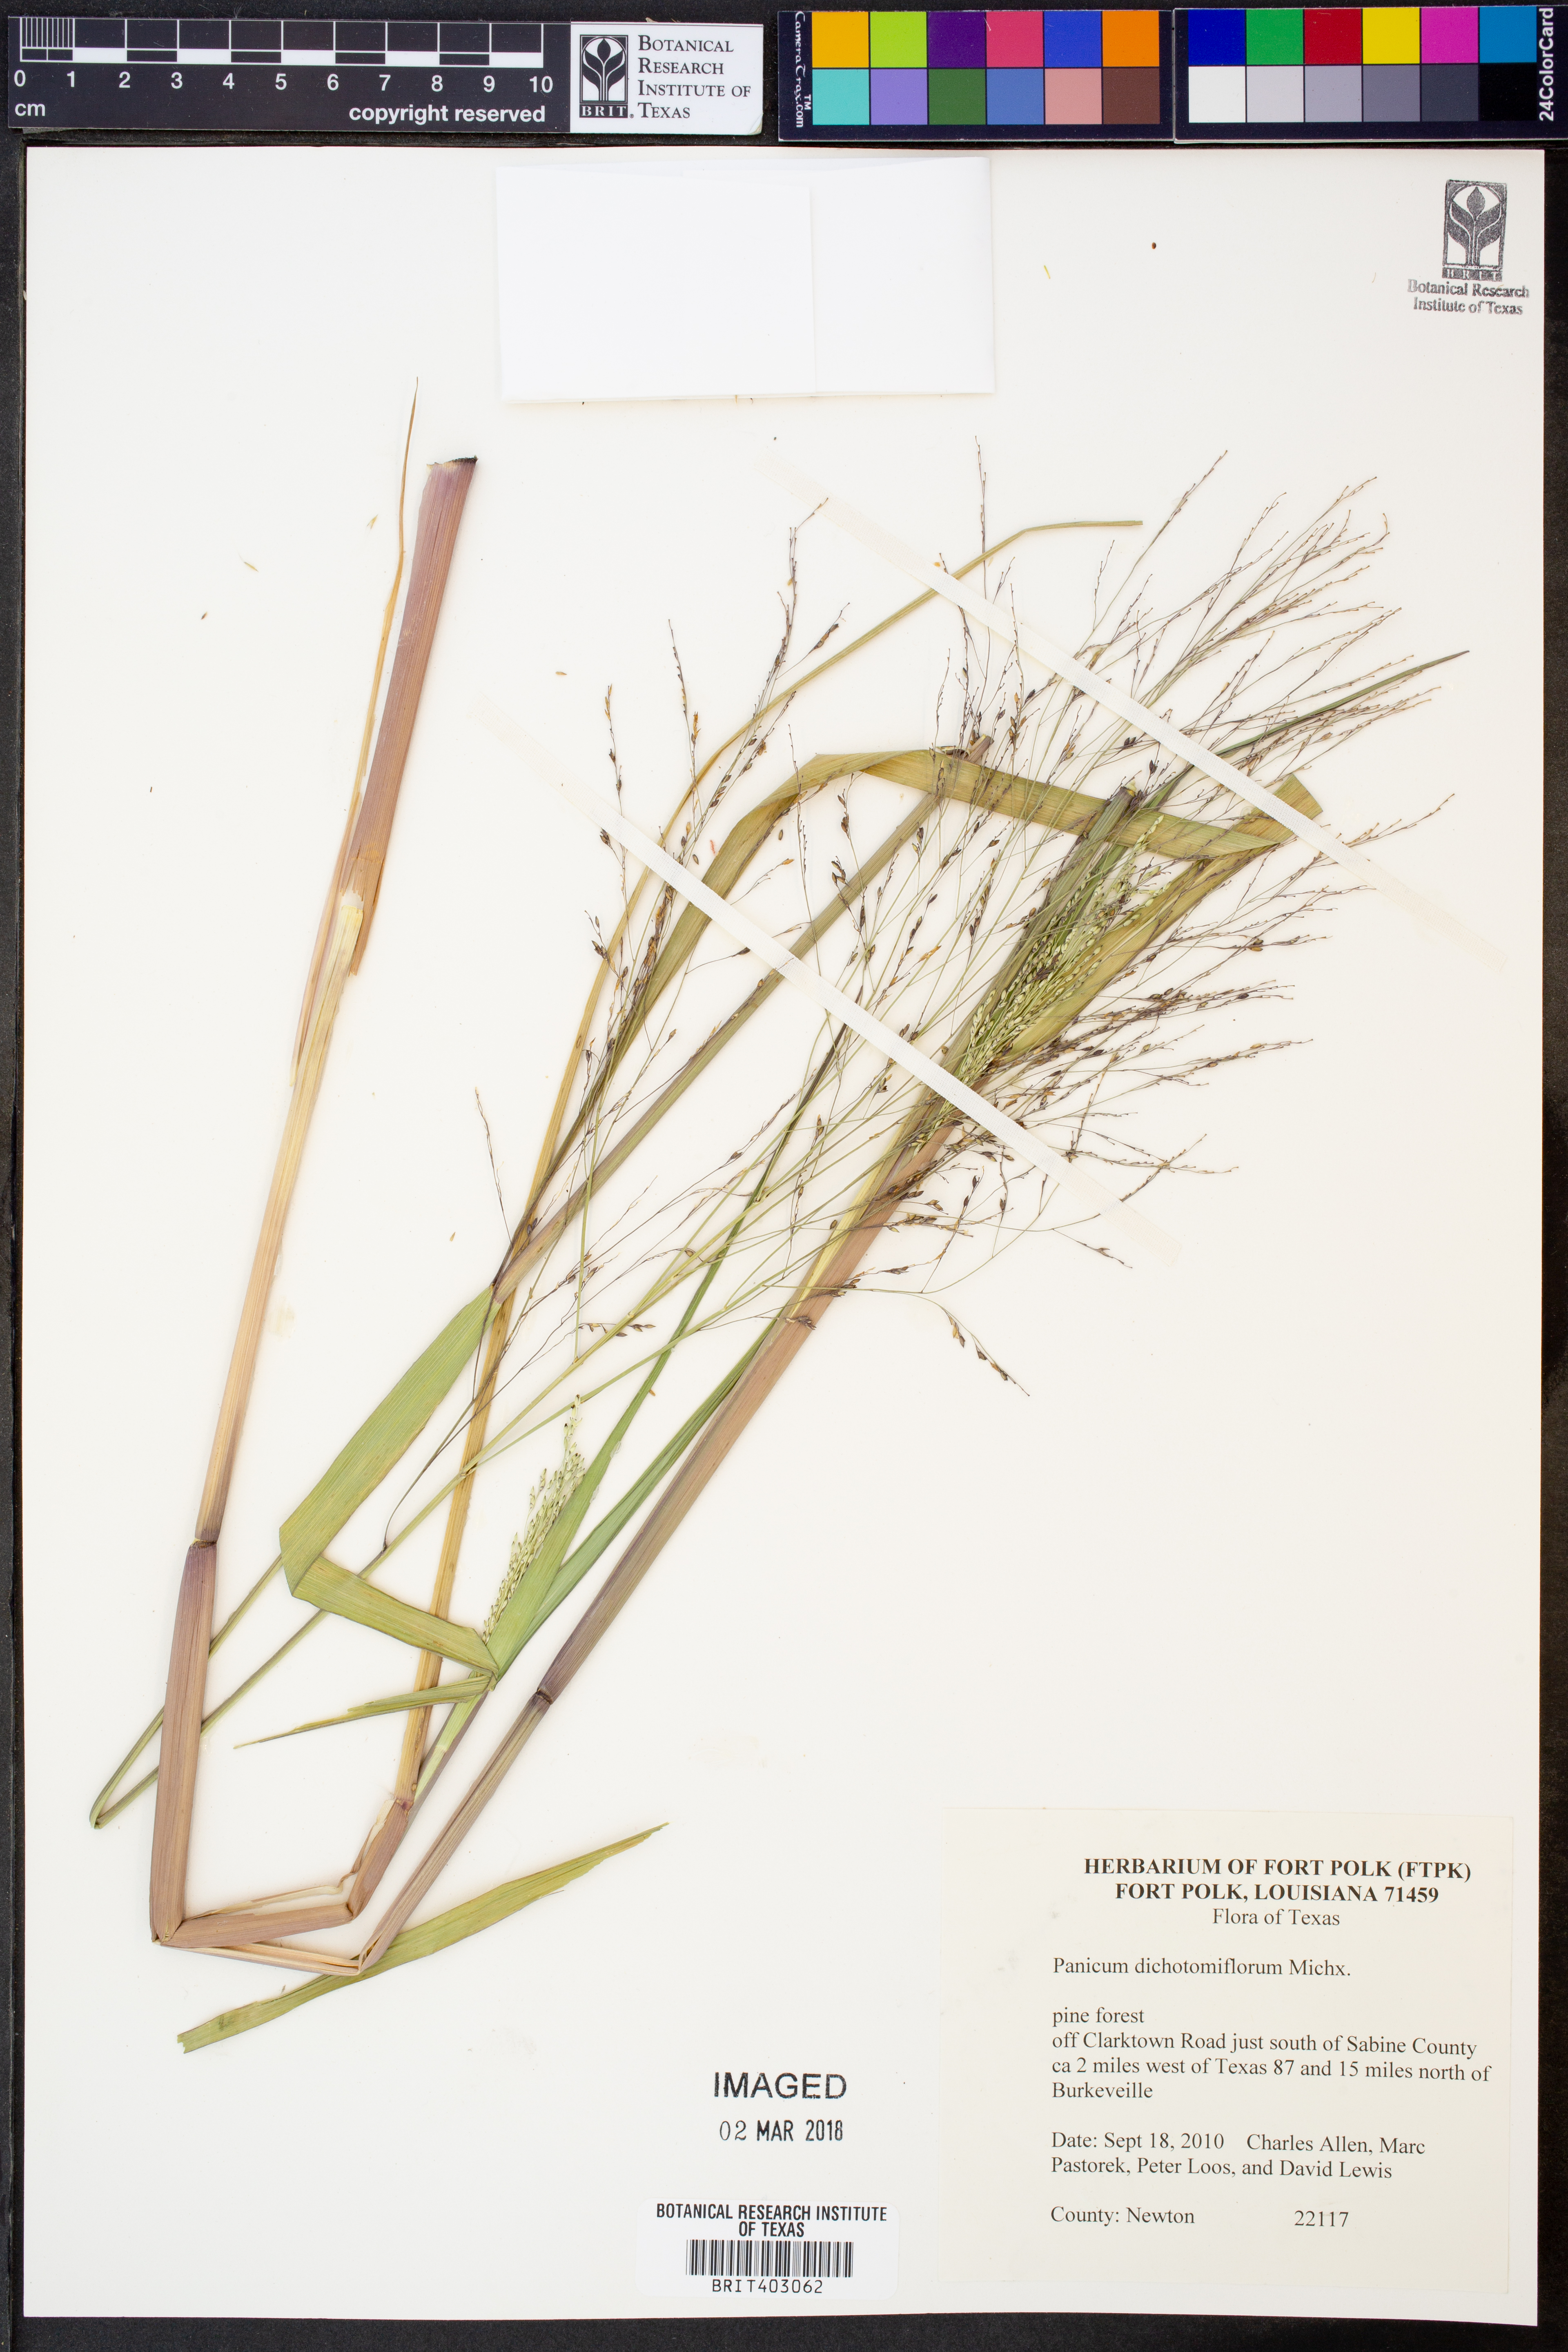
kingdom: Plantae
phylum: Tracheophyta
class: Liliopsida
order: Poales
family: Poaceae
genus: Panicum
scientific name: Panicum dichotomiflorum
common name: Autumn millet
